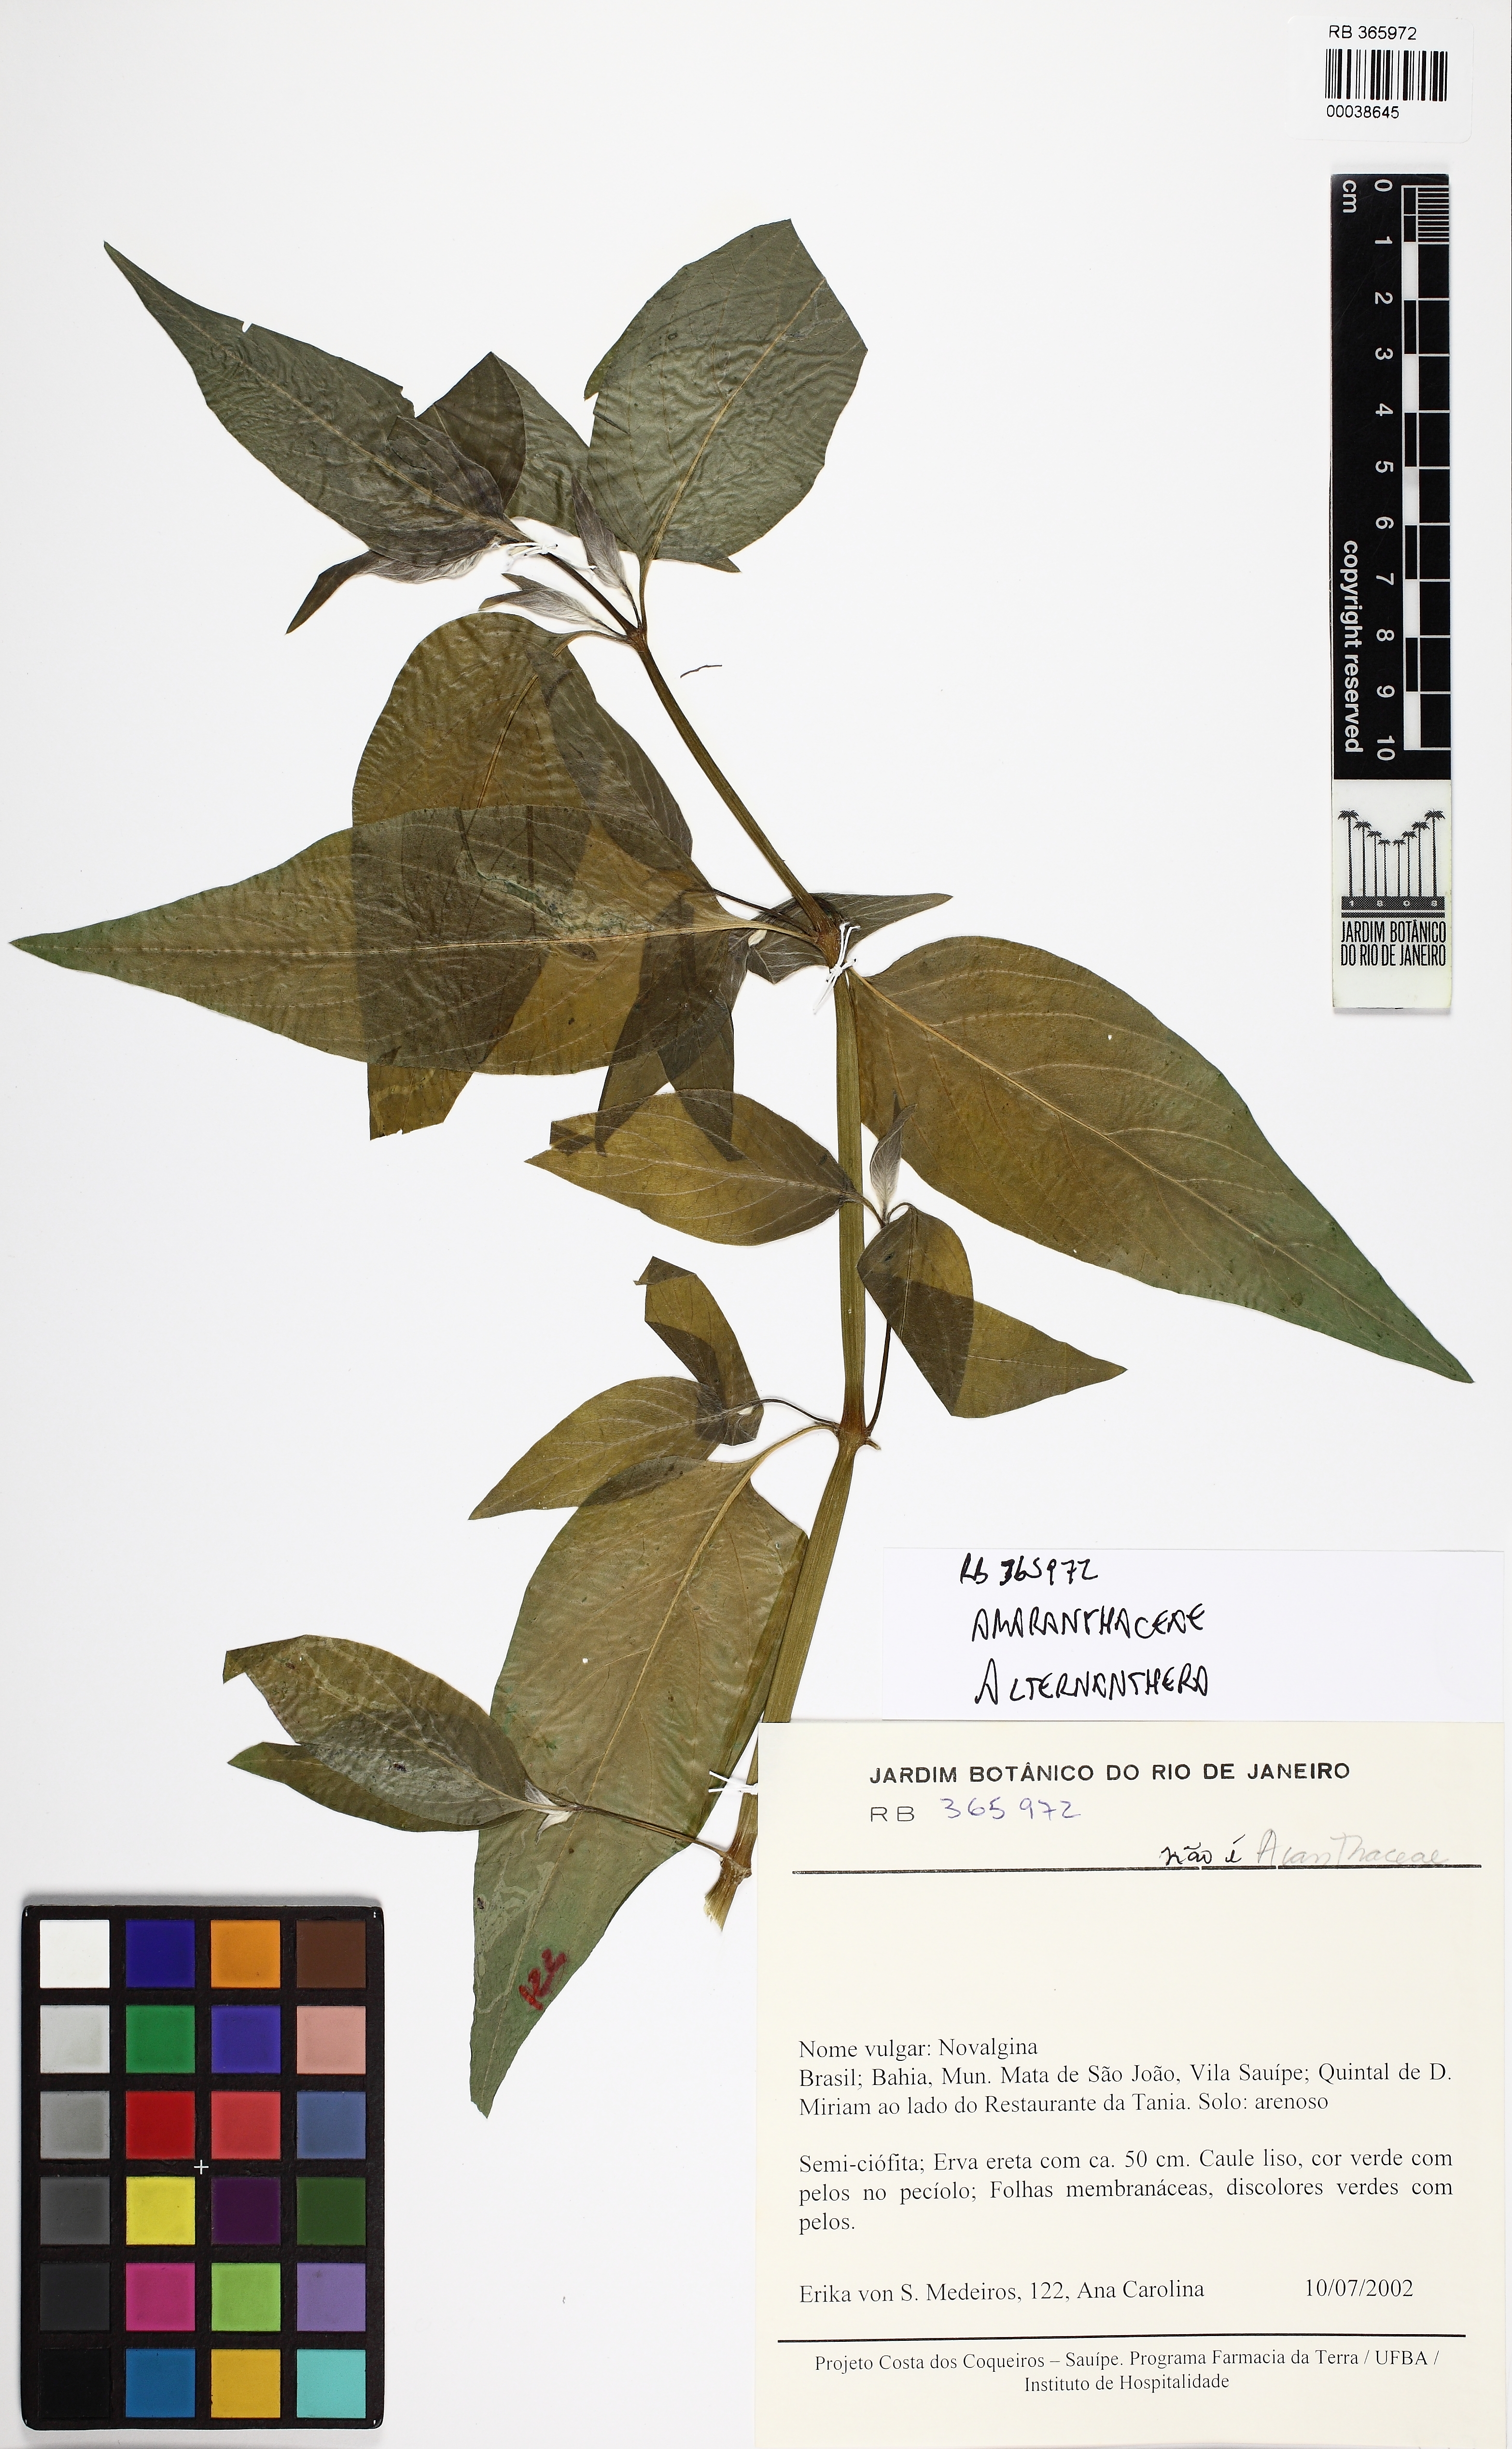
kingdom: Plantae
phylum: Tracheophyta
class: Magnoliopsida
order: Caryophyllales
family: Amaranthaceae
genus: Alternanthera
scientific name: Alternanthera
